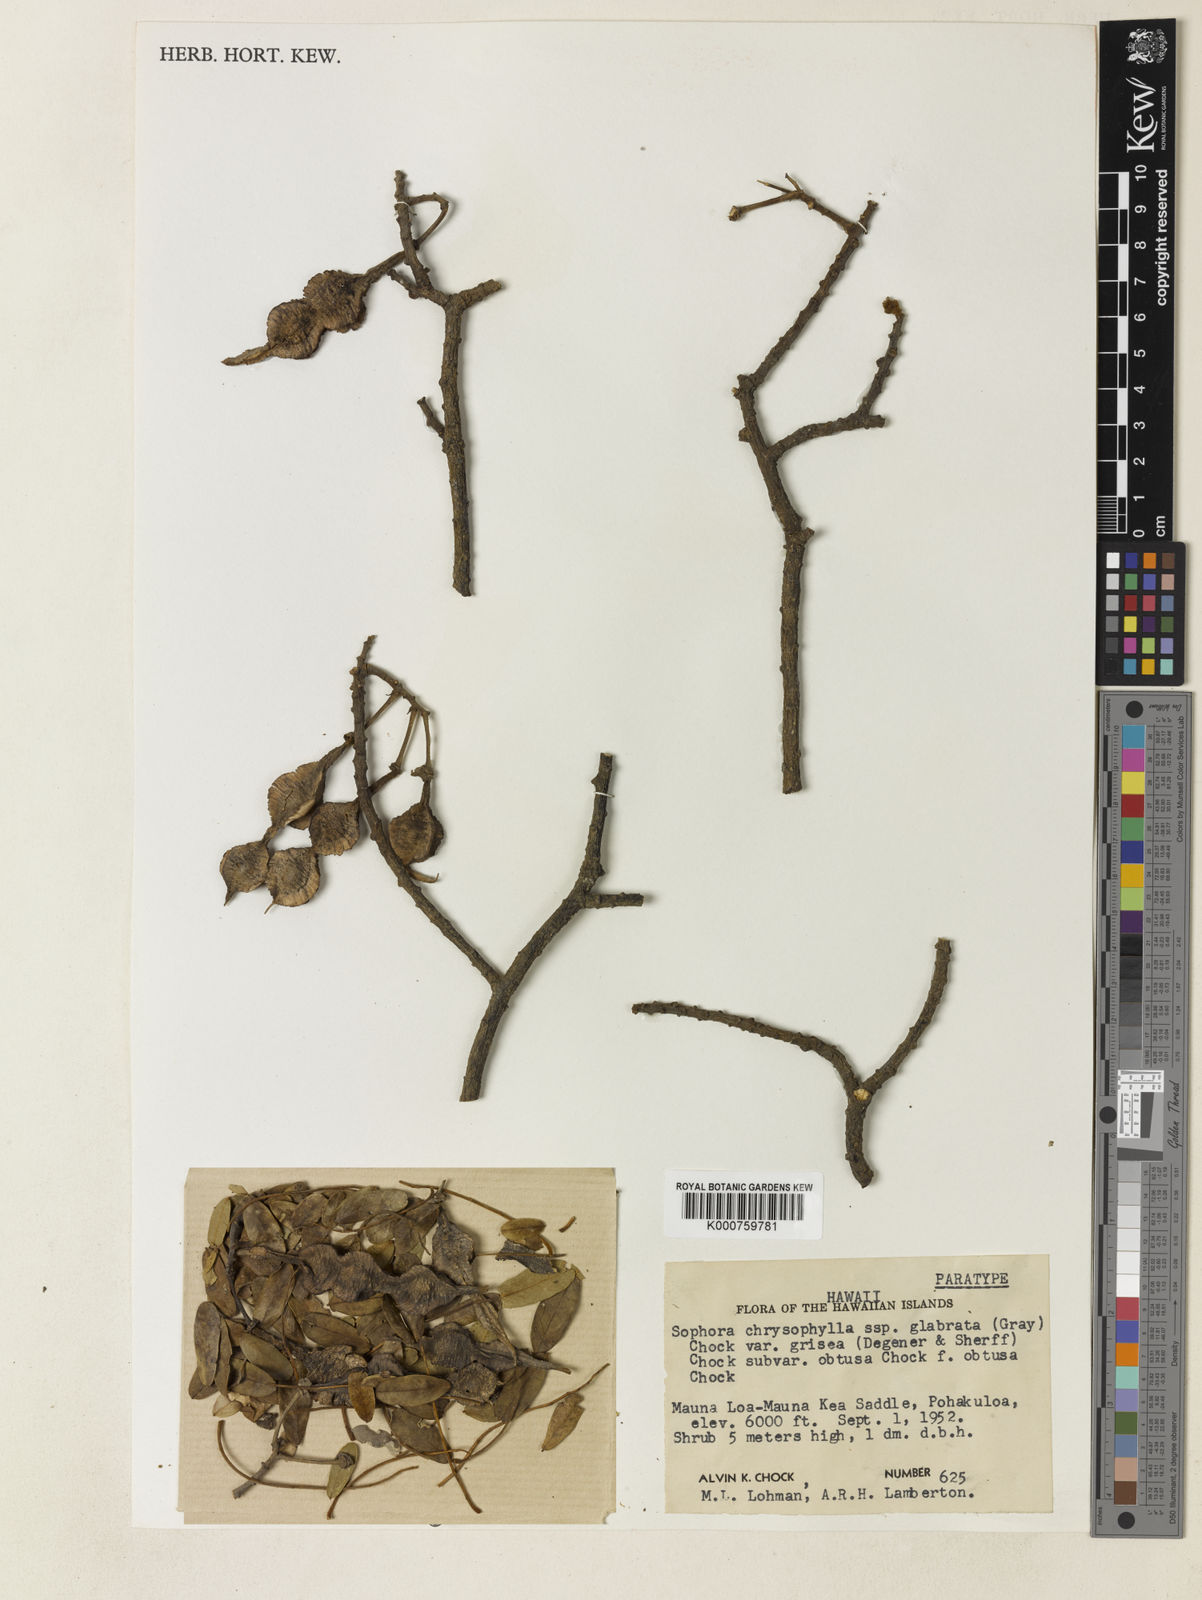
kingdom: Plantae
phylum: Tracheophyta
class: Magnoliopsida
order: Fabales
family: Fabaceae
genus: Sophora
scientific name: Sophora chrysophylla
